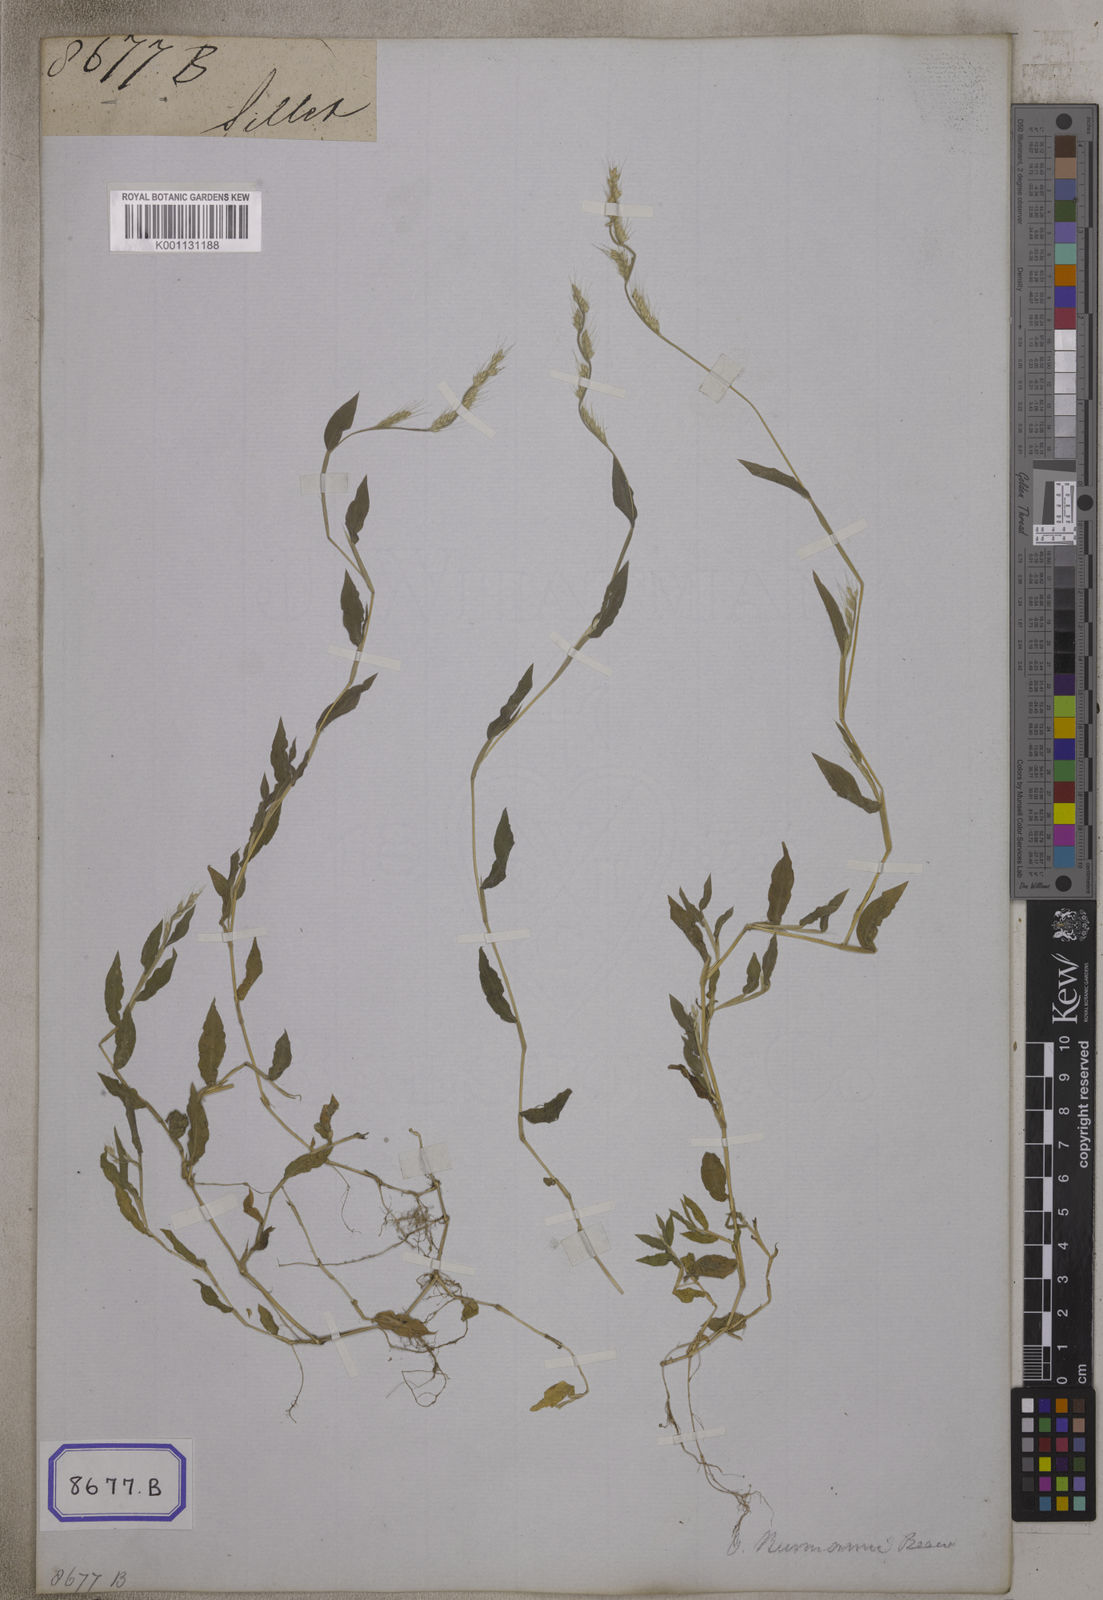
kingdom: Plantae
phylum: Tracheophyta
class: Liliopsida
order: Poales
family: Poaceae
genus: Oplismenus
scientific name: Oplismenus
